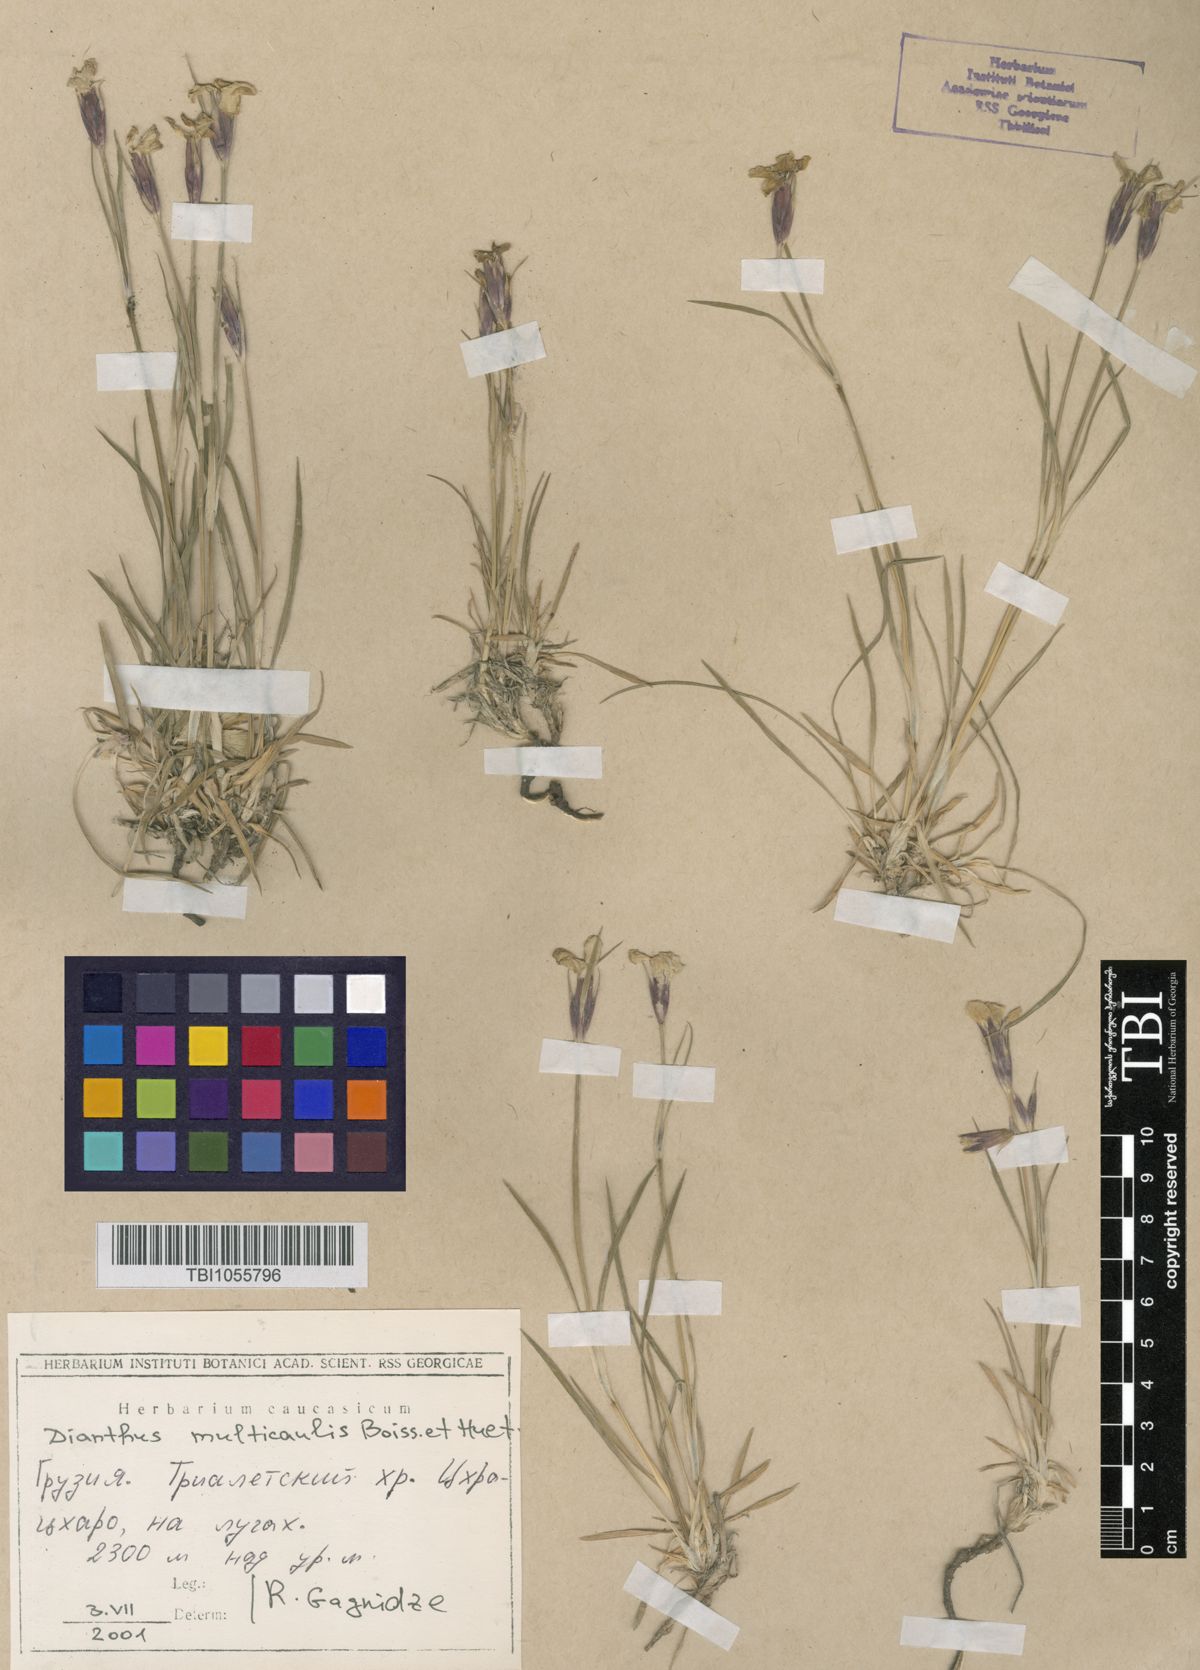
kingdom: Plantae
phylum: Tracheophyta
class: Magnoliopsida
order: Caryophyllales
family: Caryophyllaceae
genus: Dianthus
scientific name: Dianthus cretaceus
